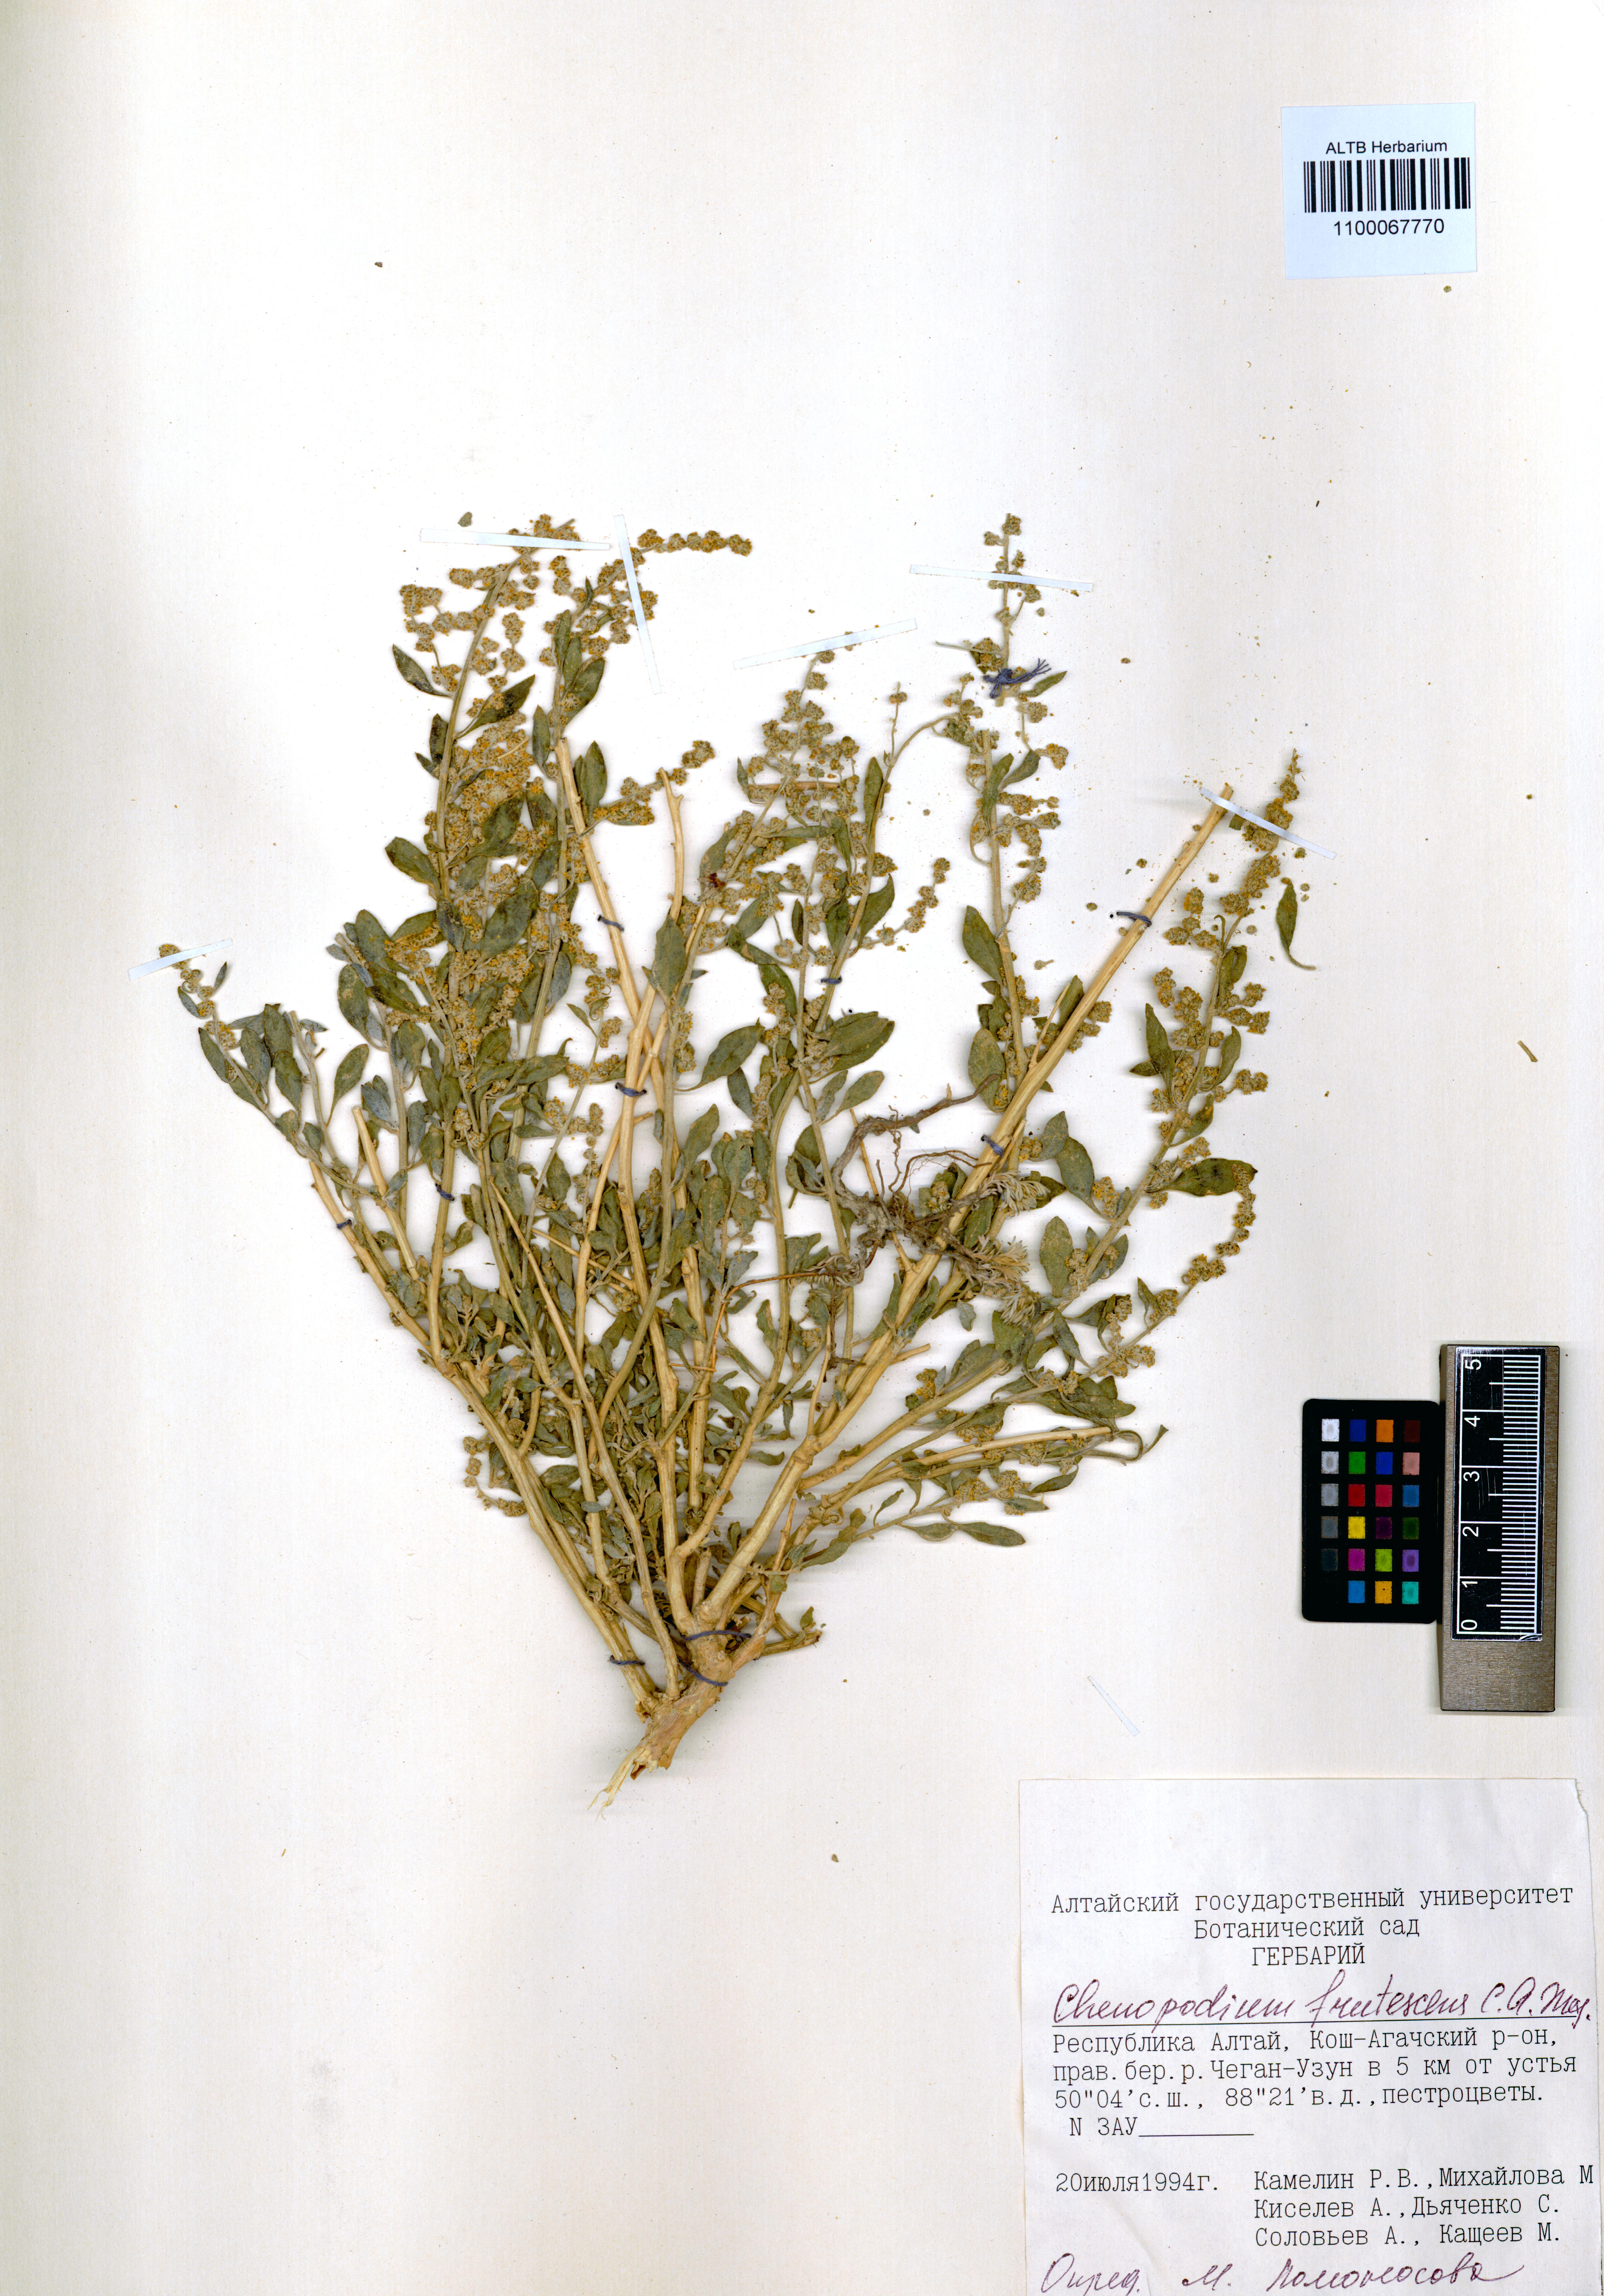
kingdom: Plantae
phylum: Tracheophyta
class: Magnoliopsida
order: Caryophyllales
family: Amaranthaceae
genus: Chenopodium
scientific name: Chenopodium frutescens
